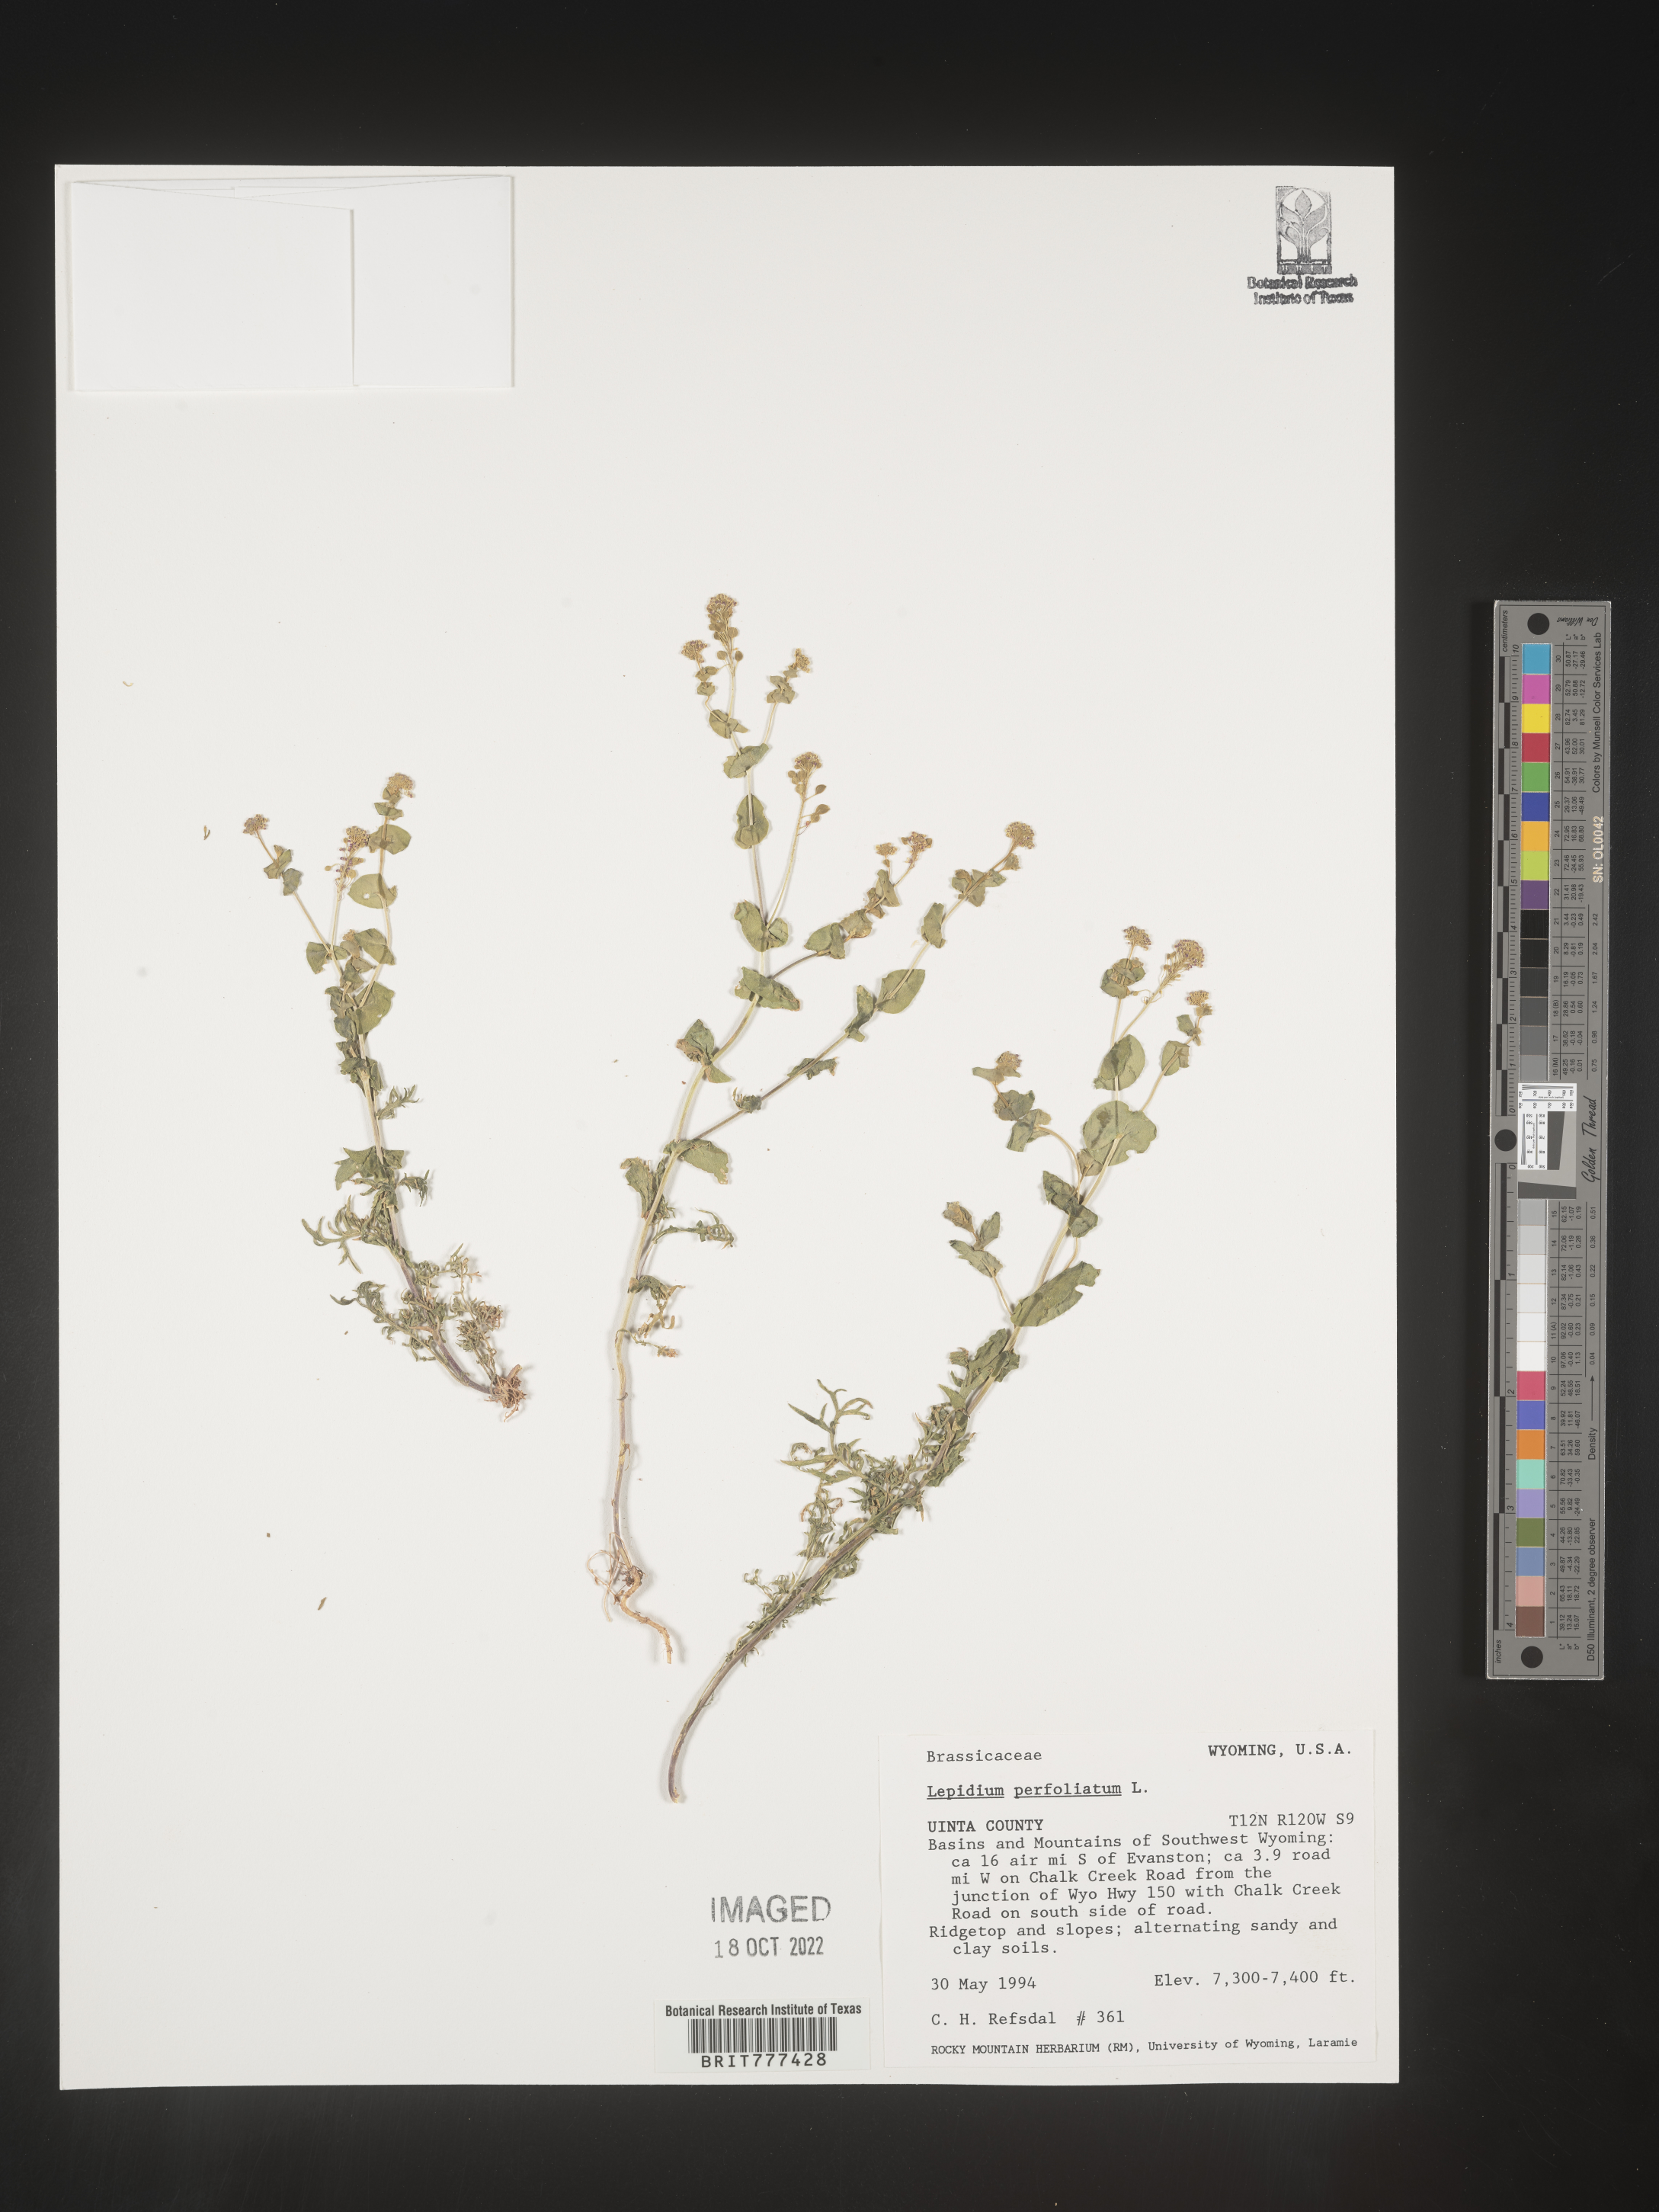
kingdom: Plantae
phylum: Tracheophyta
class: Magnoliopsida
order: Brassicales
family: Brassicaceae
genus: Lepidium
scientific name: Lepidium perfoliatum
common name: Perfoliate pepperwort
